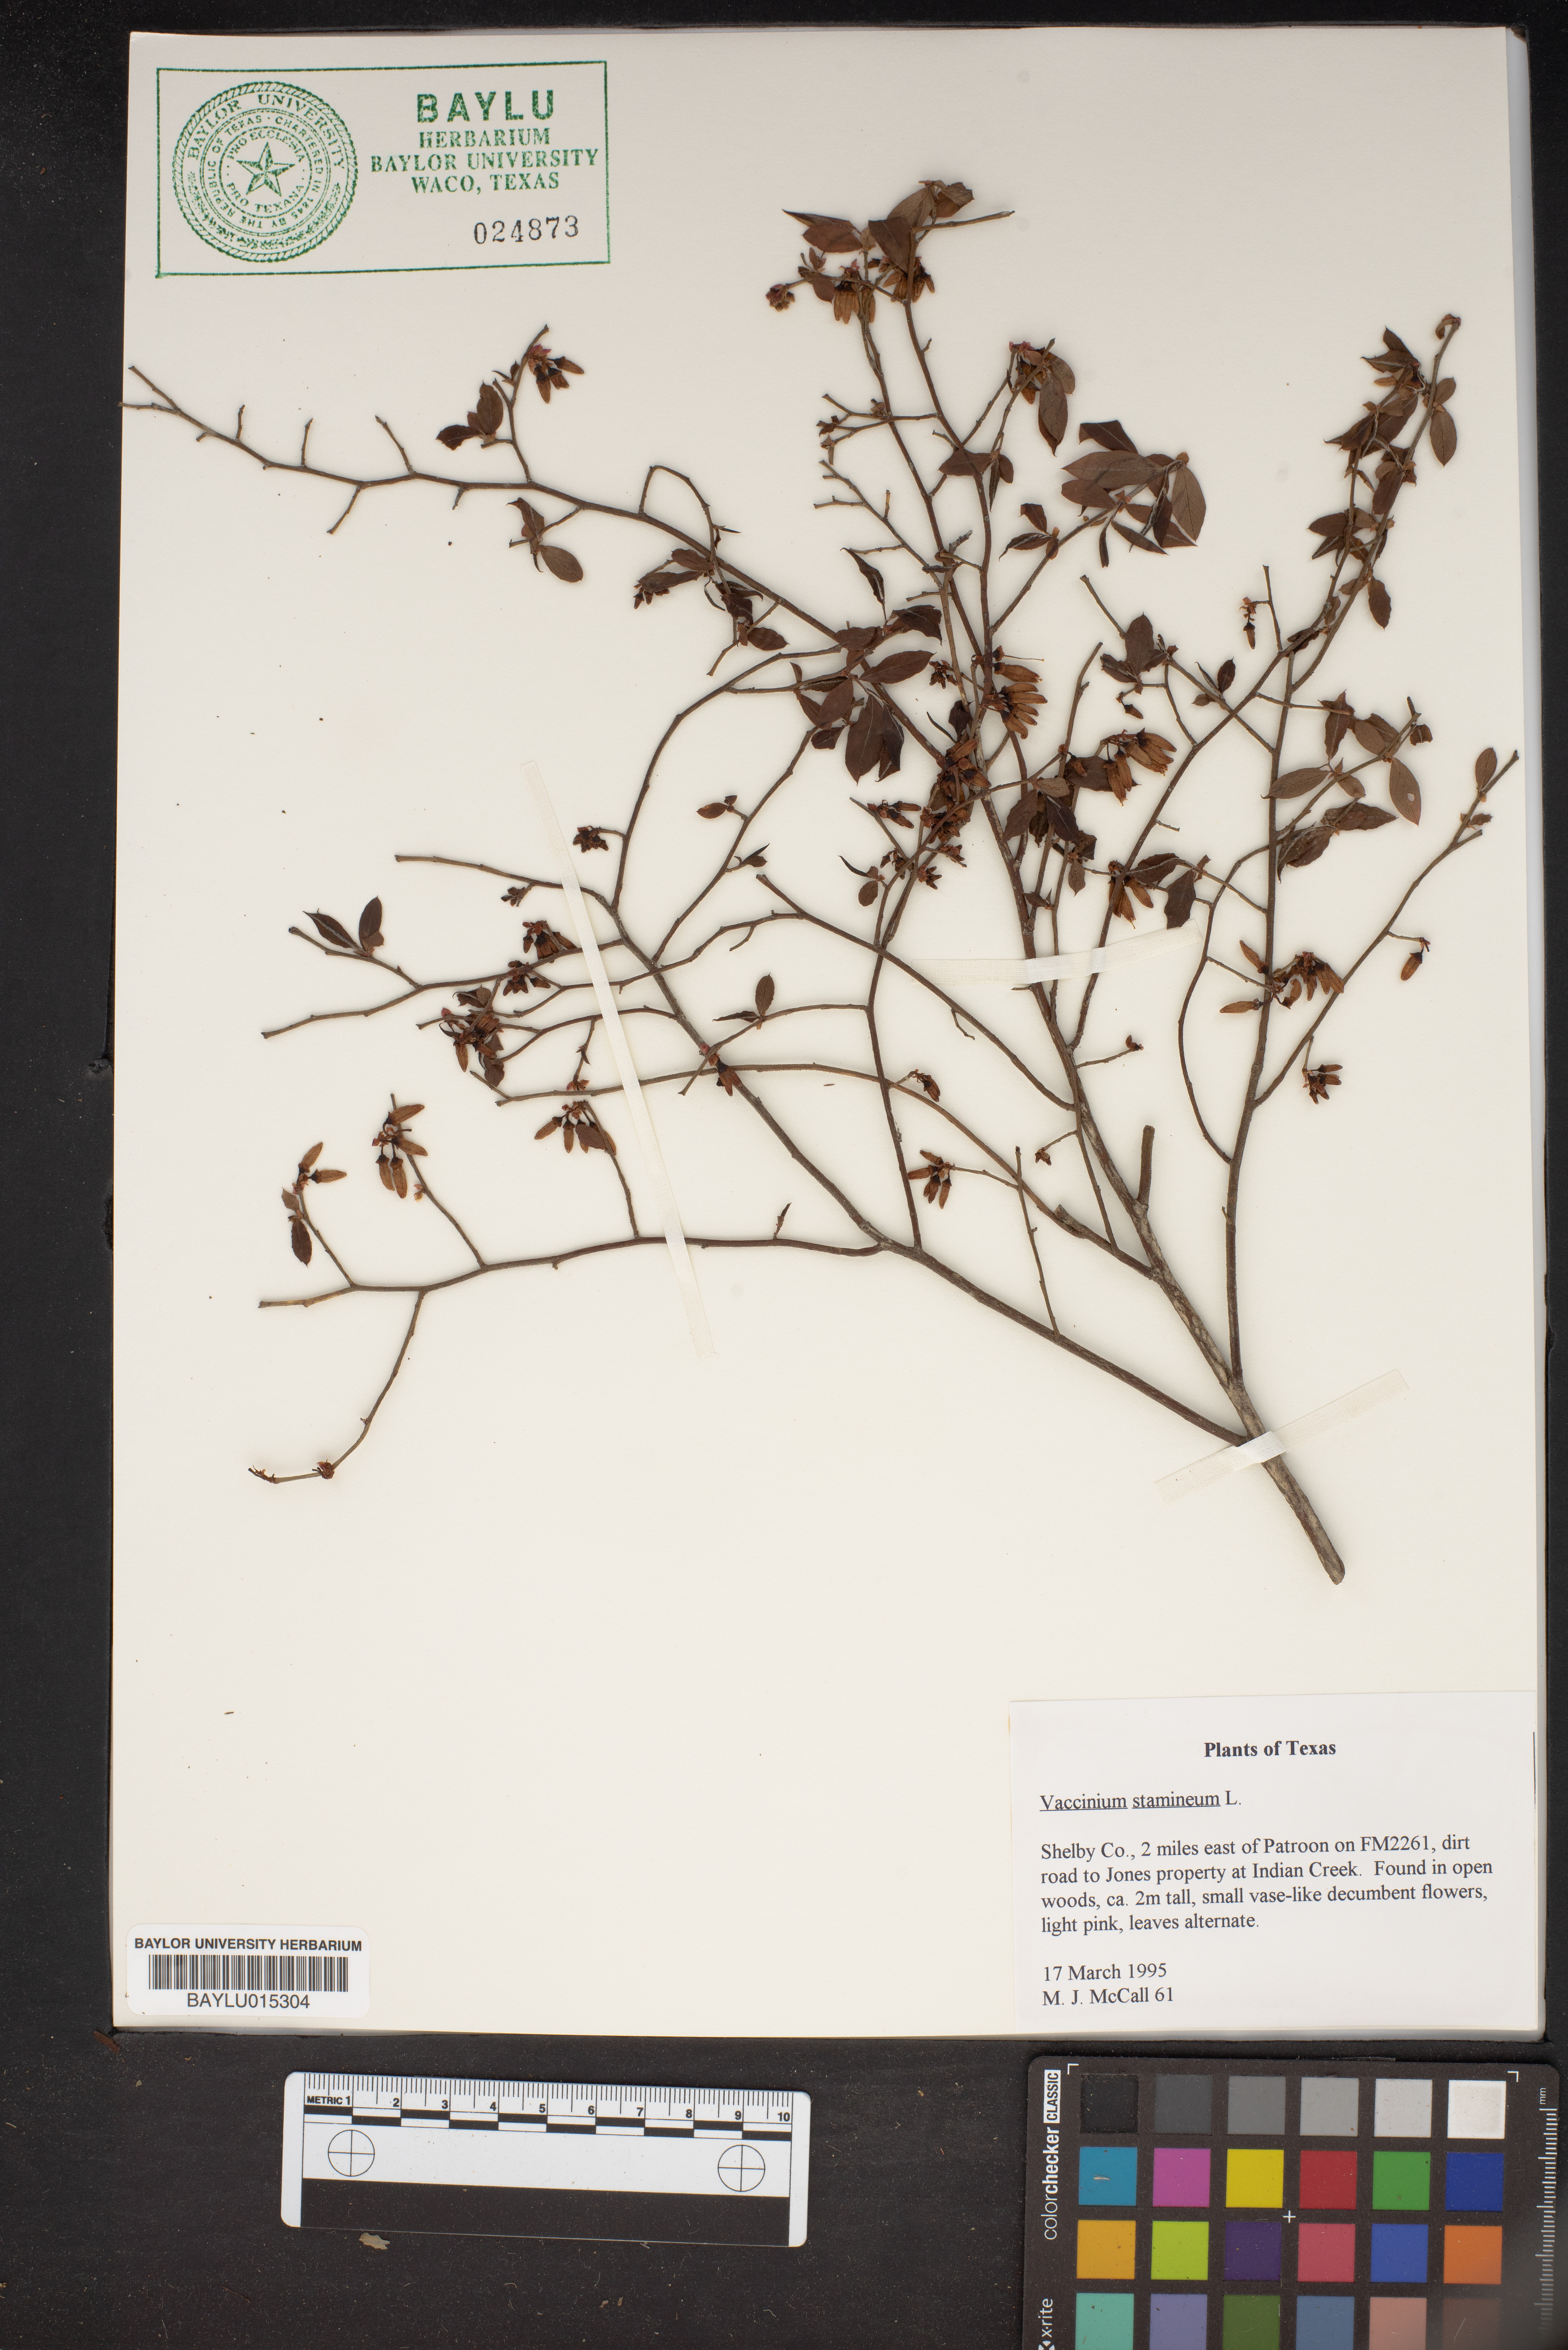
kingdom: Plantae
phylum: Tracheophyta
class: Magnoliopsida
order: Ericales
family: Ericaceae
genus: Vaccinium
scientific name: Vaccinium stamineum
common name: Deerberry
